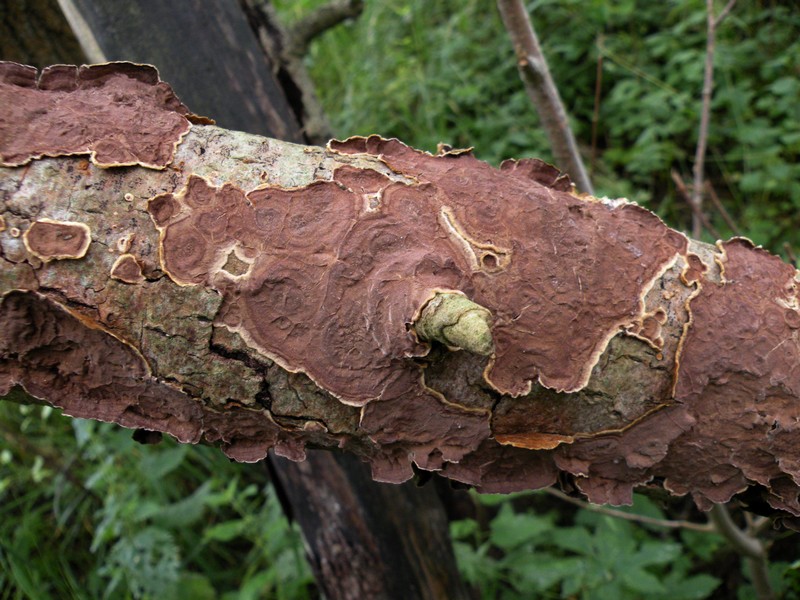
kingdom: Fungi
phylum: Basidiomycota
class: Agaricomycetes
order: Hymenochaetales
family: Hymenochaetaceae
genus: Hydnoporia
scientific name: Hydnoporia tabacina
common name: tobaksbrun ruslædersvamp
